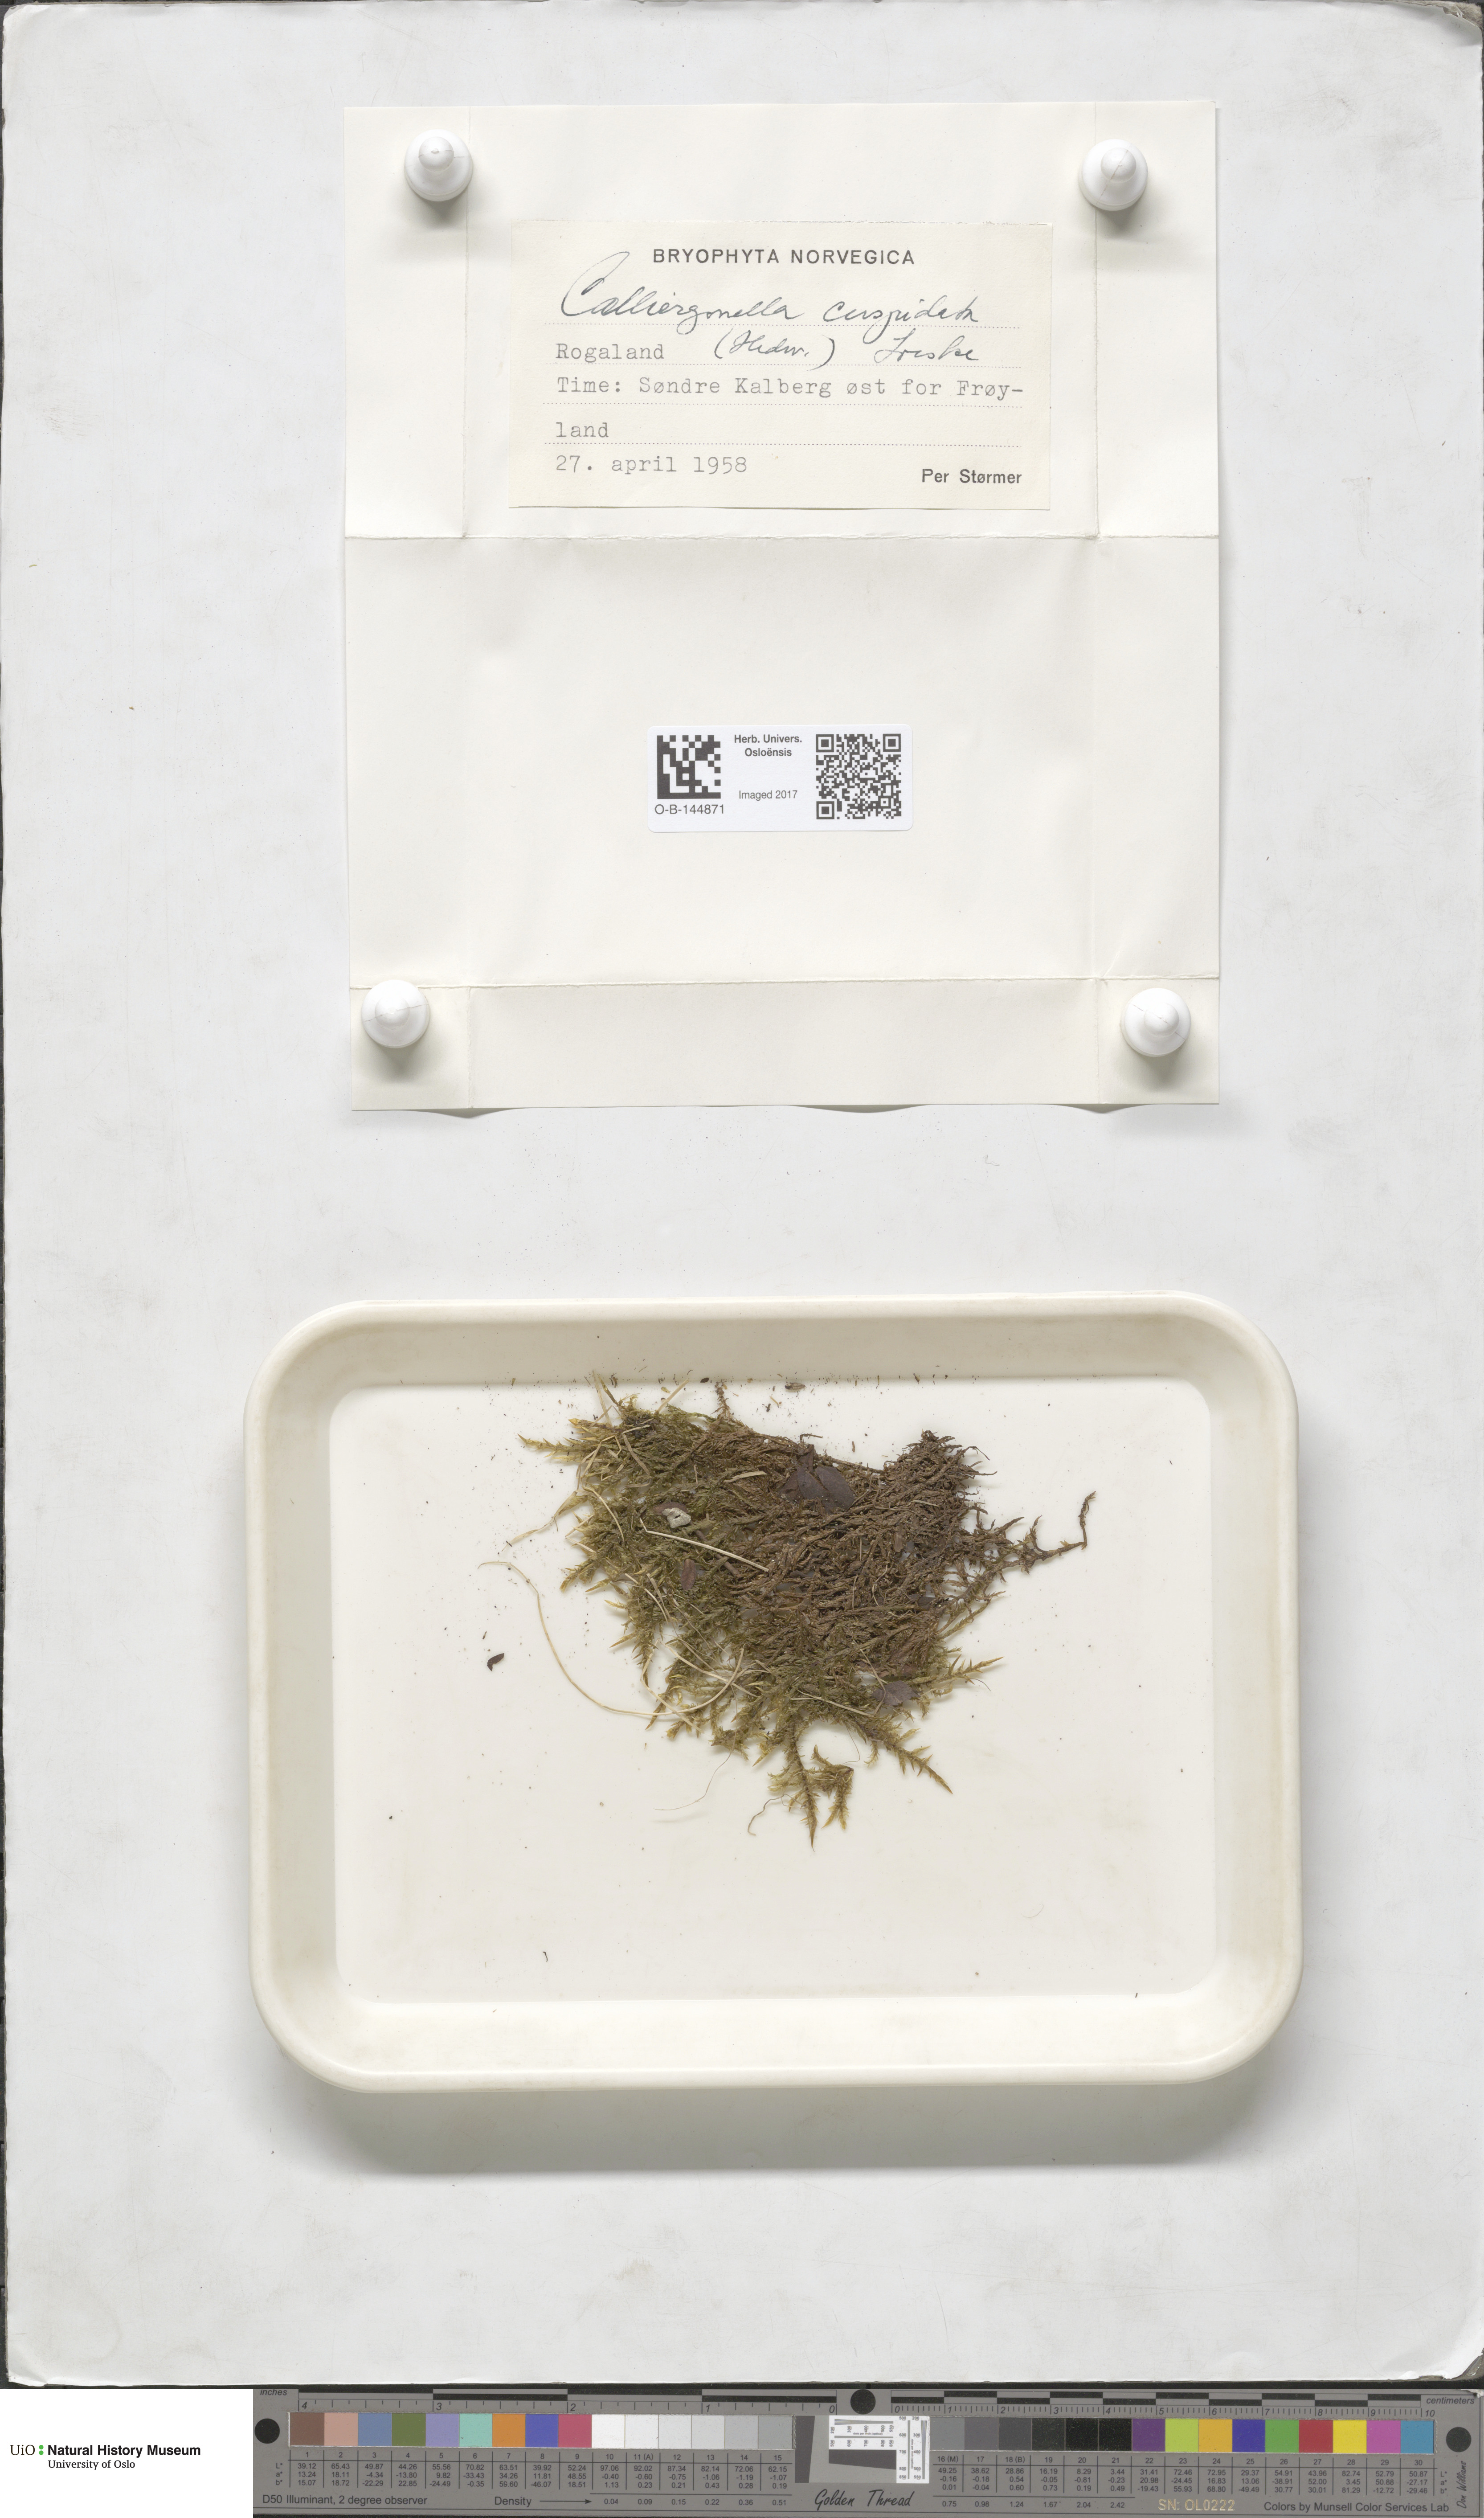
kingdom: Plantae
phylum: Bryophyta
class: Bryopsida
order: Hypnales
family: Pylaisiaceae
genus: Calliergonella
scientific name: Calliergonella cuspidata
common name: Common large wetland moss
